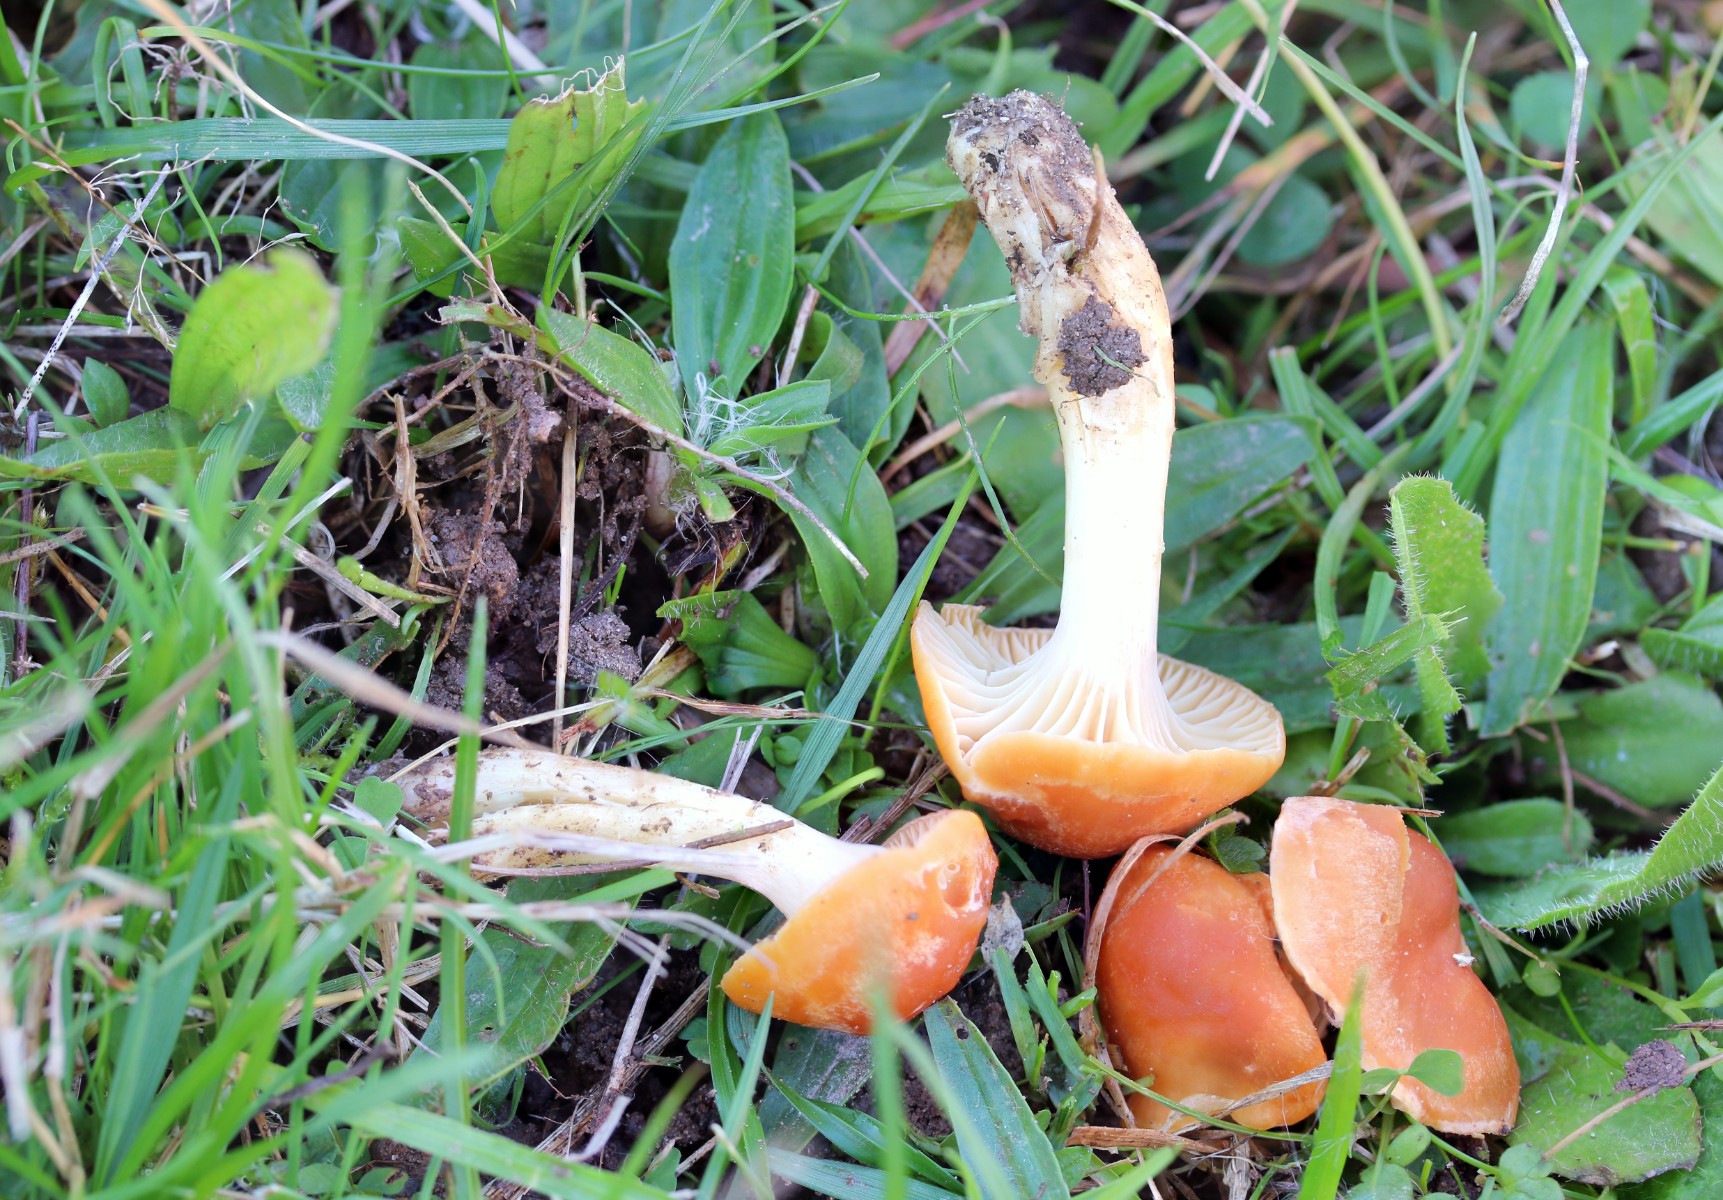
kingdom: Fungi
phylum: Basidiomycota
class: Agaricomycetes
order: Agaricales
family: Hygrophoraceae
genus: Cuphophyllus
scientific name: Cuphophyllus pratensis
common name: eng-vokshat
